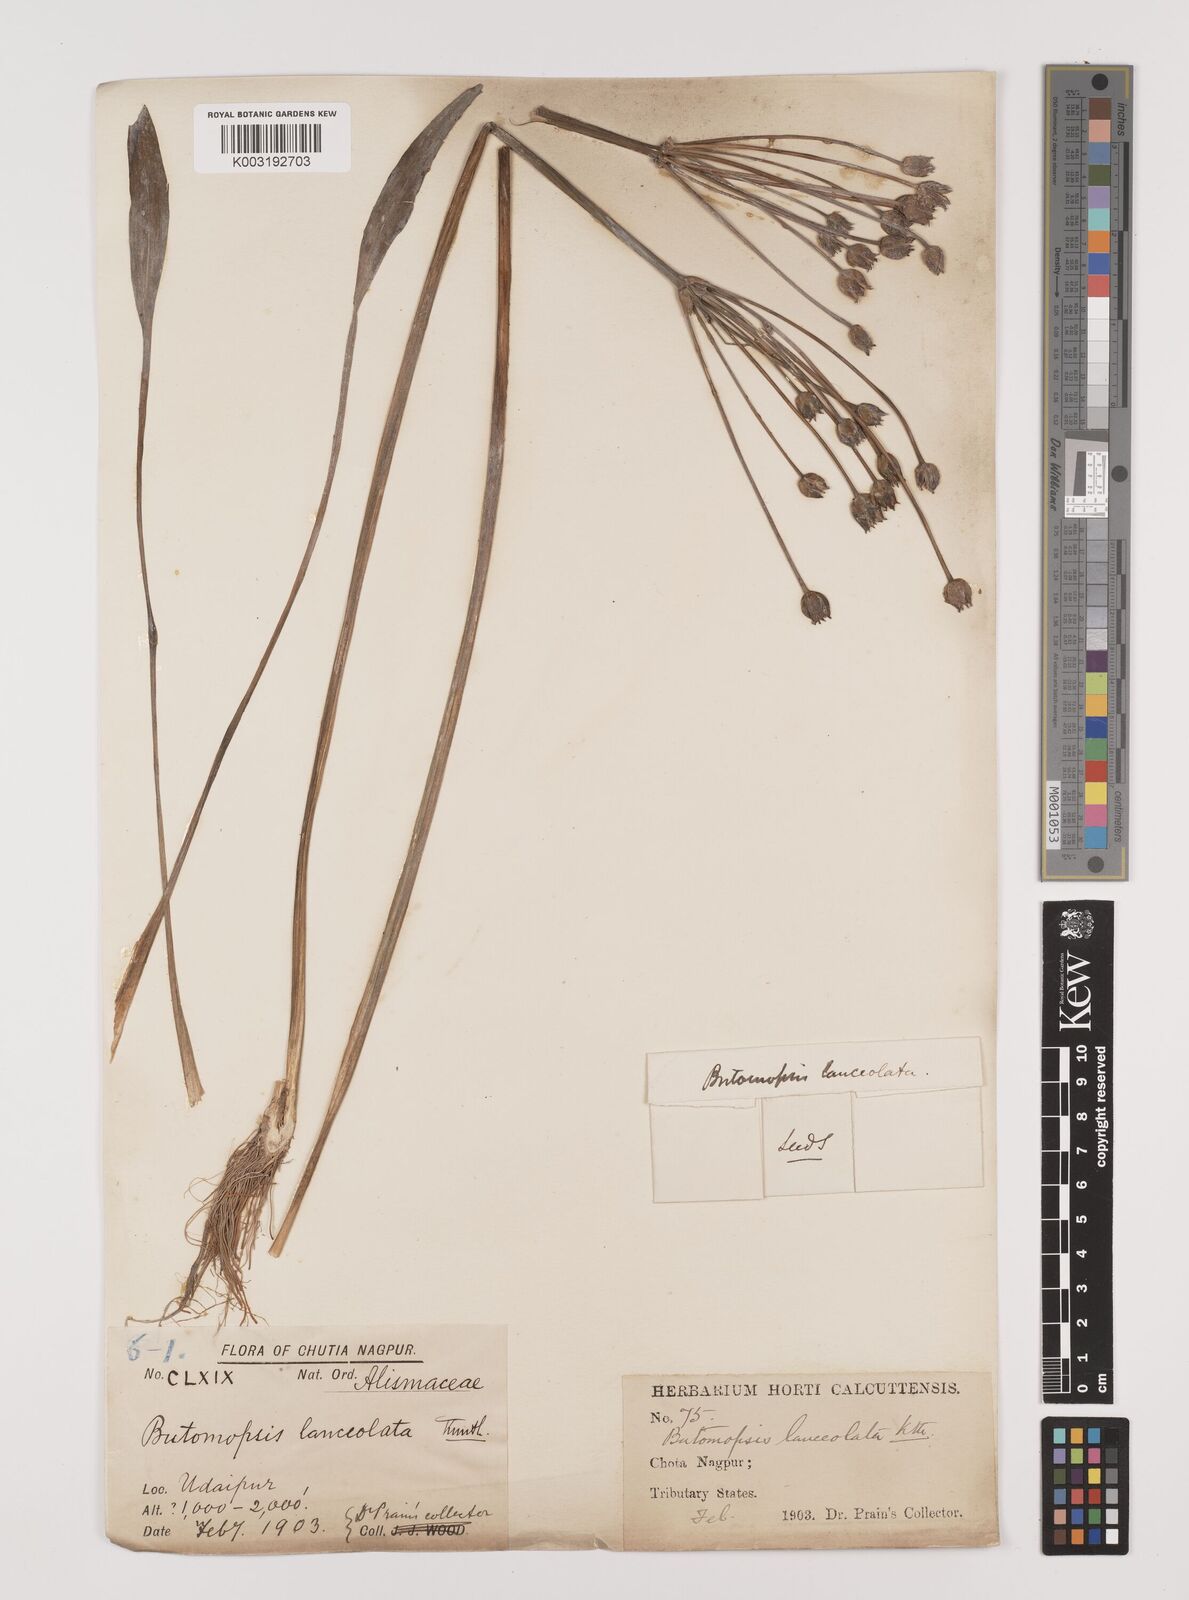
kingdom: Plantae
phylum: Tracheophyta
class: Liliopsida
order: Alismatales
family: Alismataceae
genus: Butomopsis
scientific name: Butomopsis latifolia
